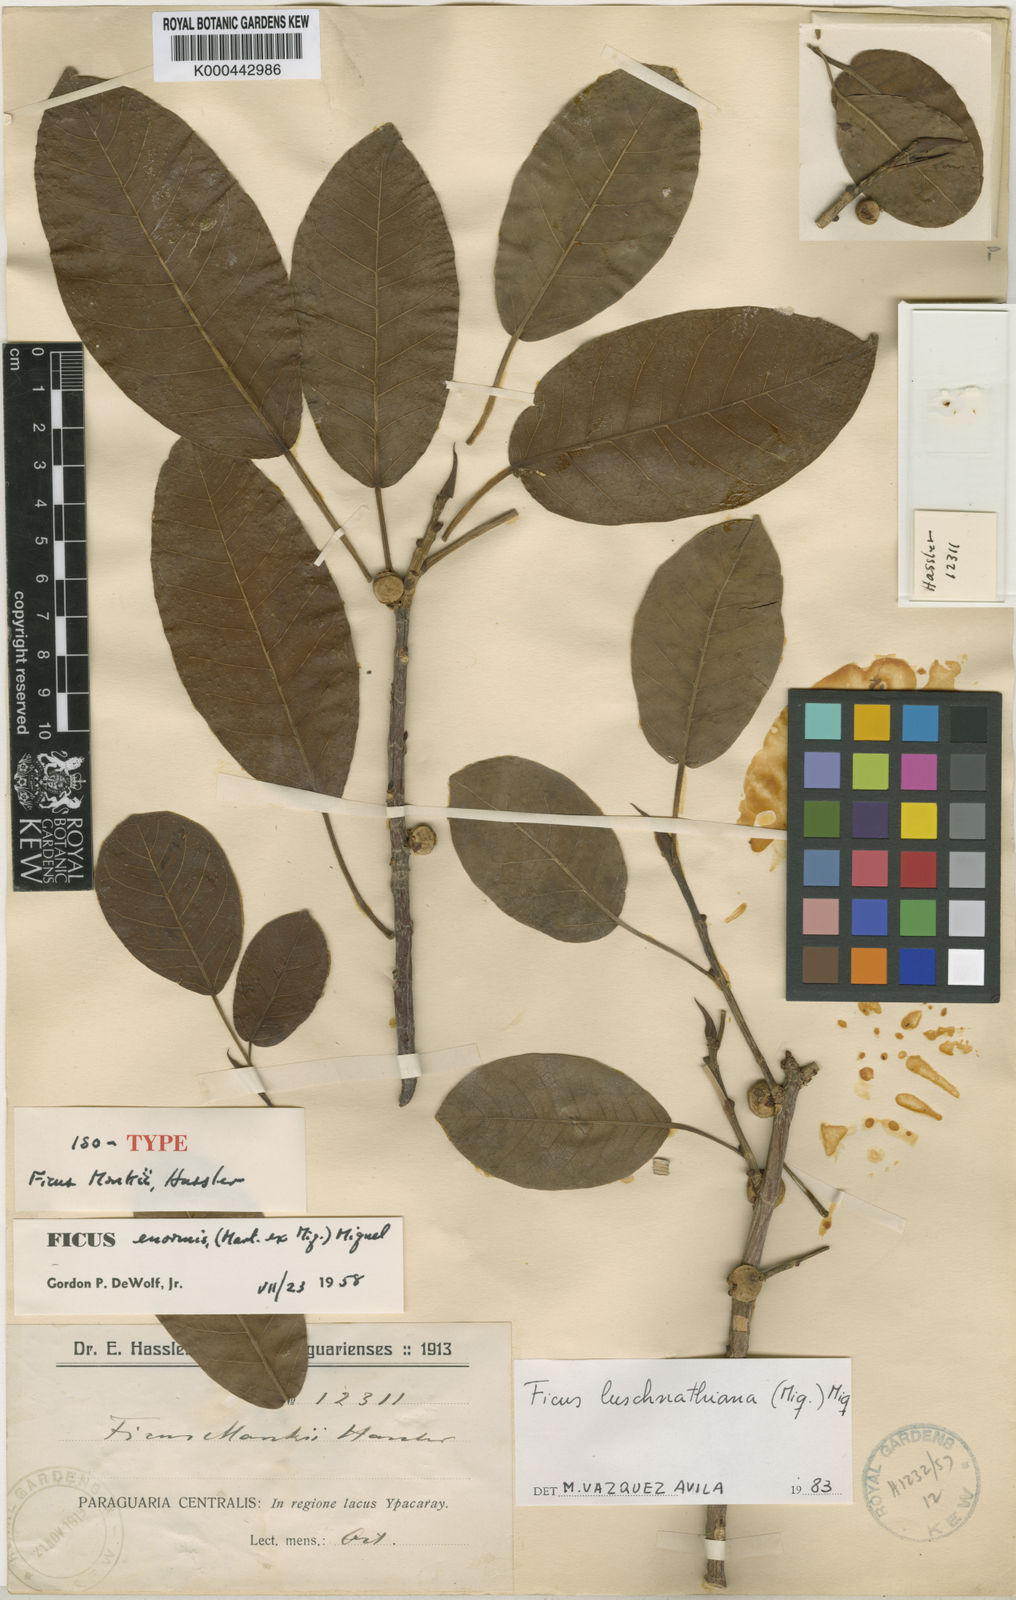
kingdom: Plantae
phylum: Tracheophyta
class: Magnoliopsida
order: Rosales
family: Moraceae
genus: Ficus
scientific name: Ficus luschnathiana
